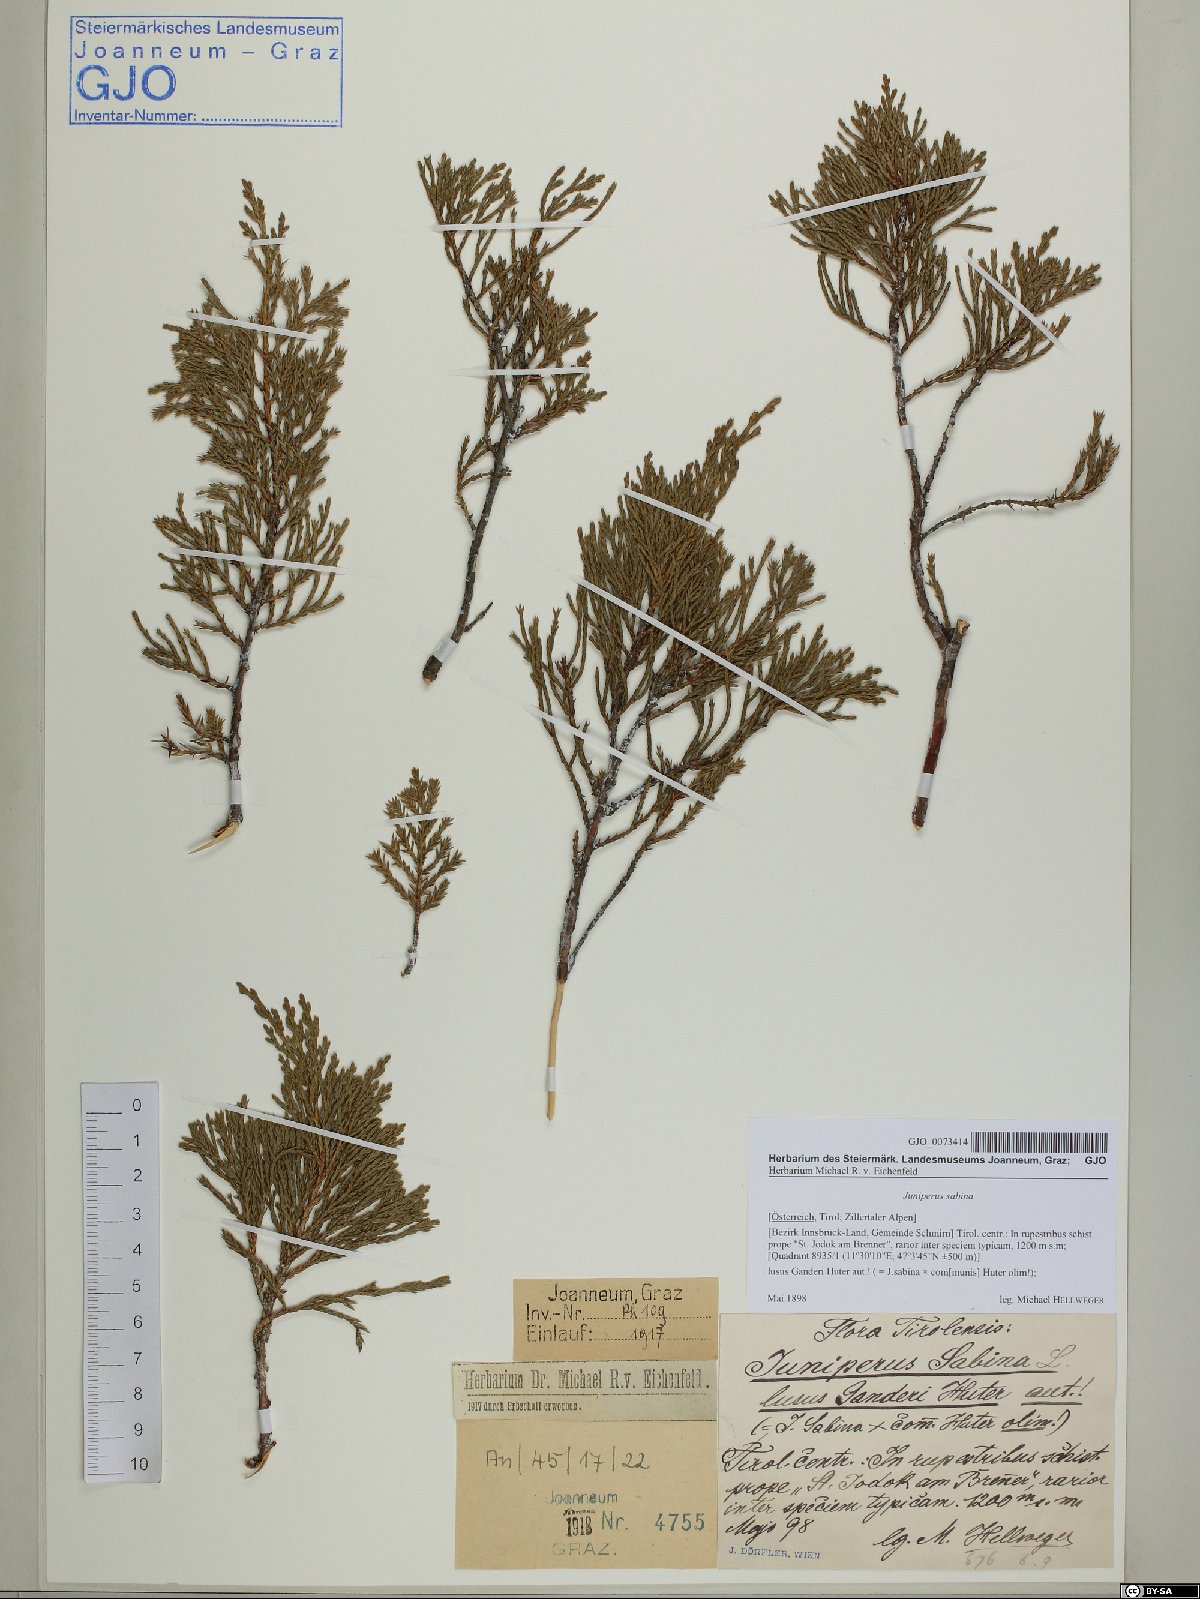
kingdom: Plantae
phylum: Tracheophyta
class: Pinopsida
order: Pinales
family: Cupressaceae
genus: Juniperus
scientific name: Juniperus sabina
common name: Savin
